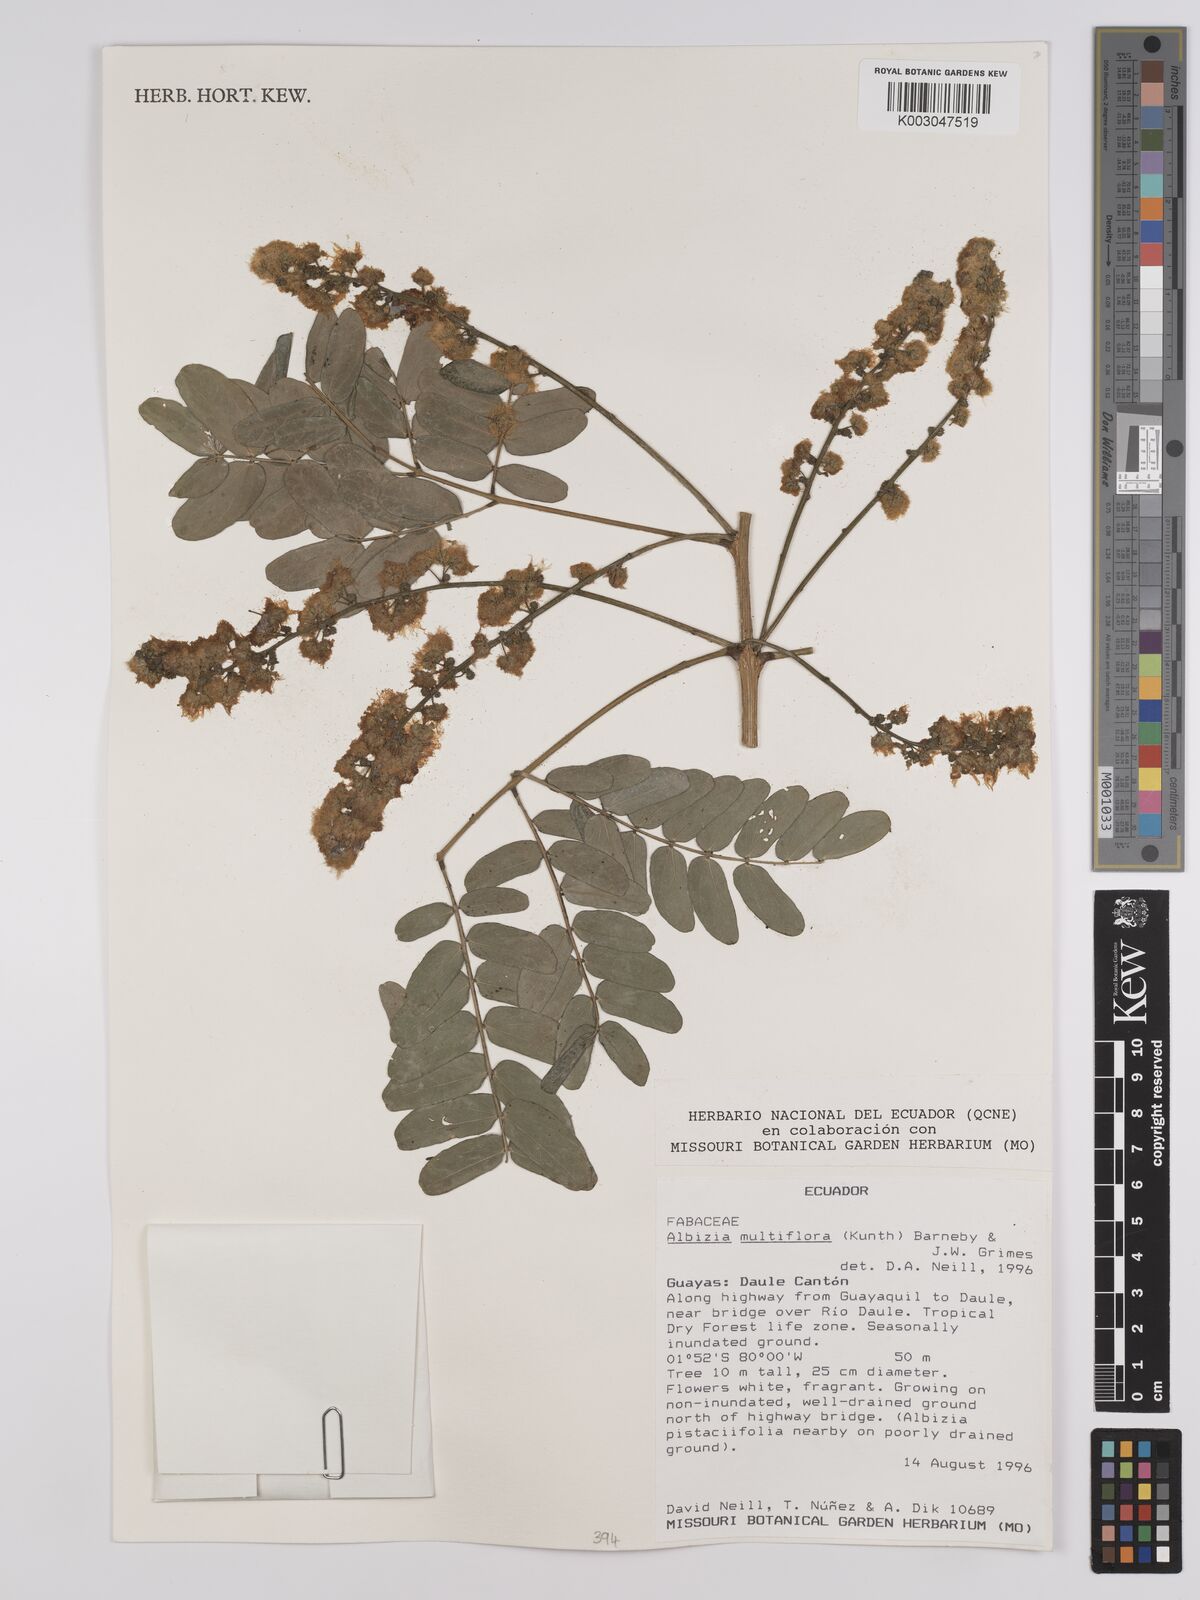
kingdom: Plantae
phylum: Tracheophyta
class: Magnoliopsida
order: Fabales
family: Fabaceae
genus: Albizia
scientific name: Albizia multiflora
